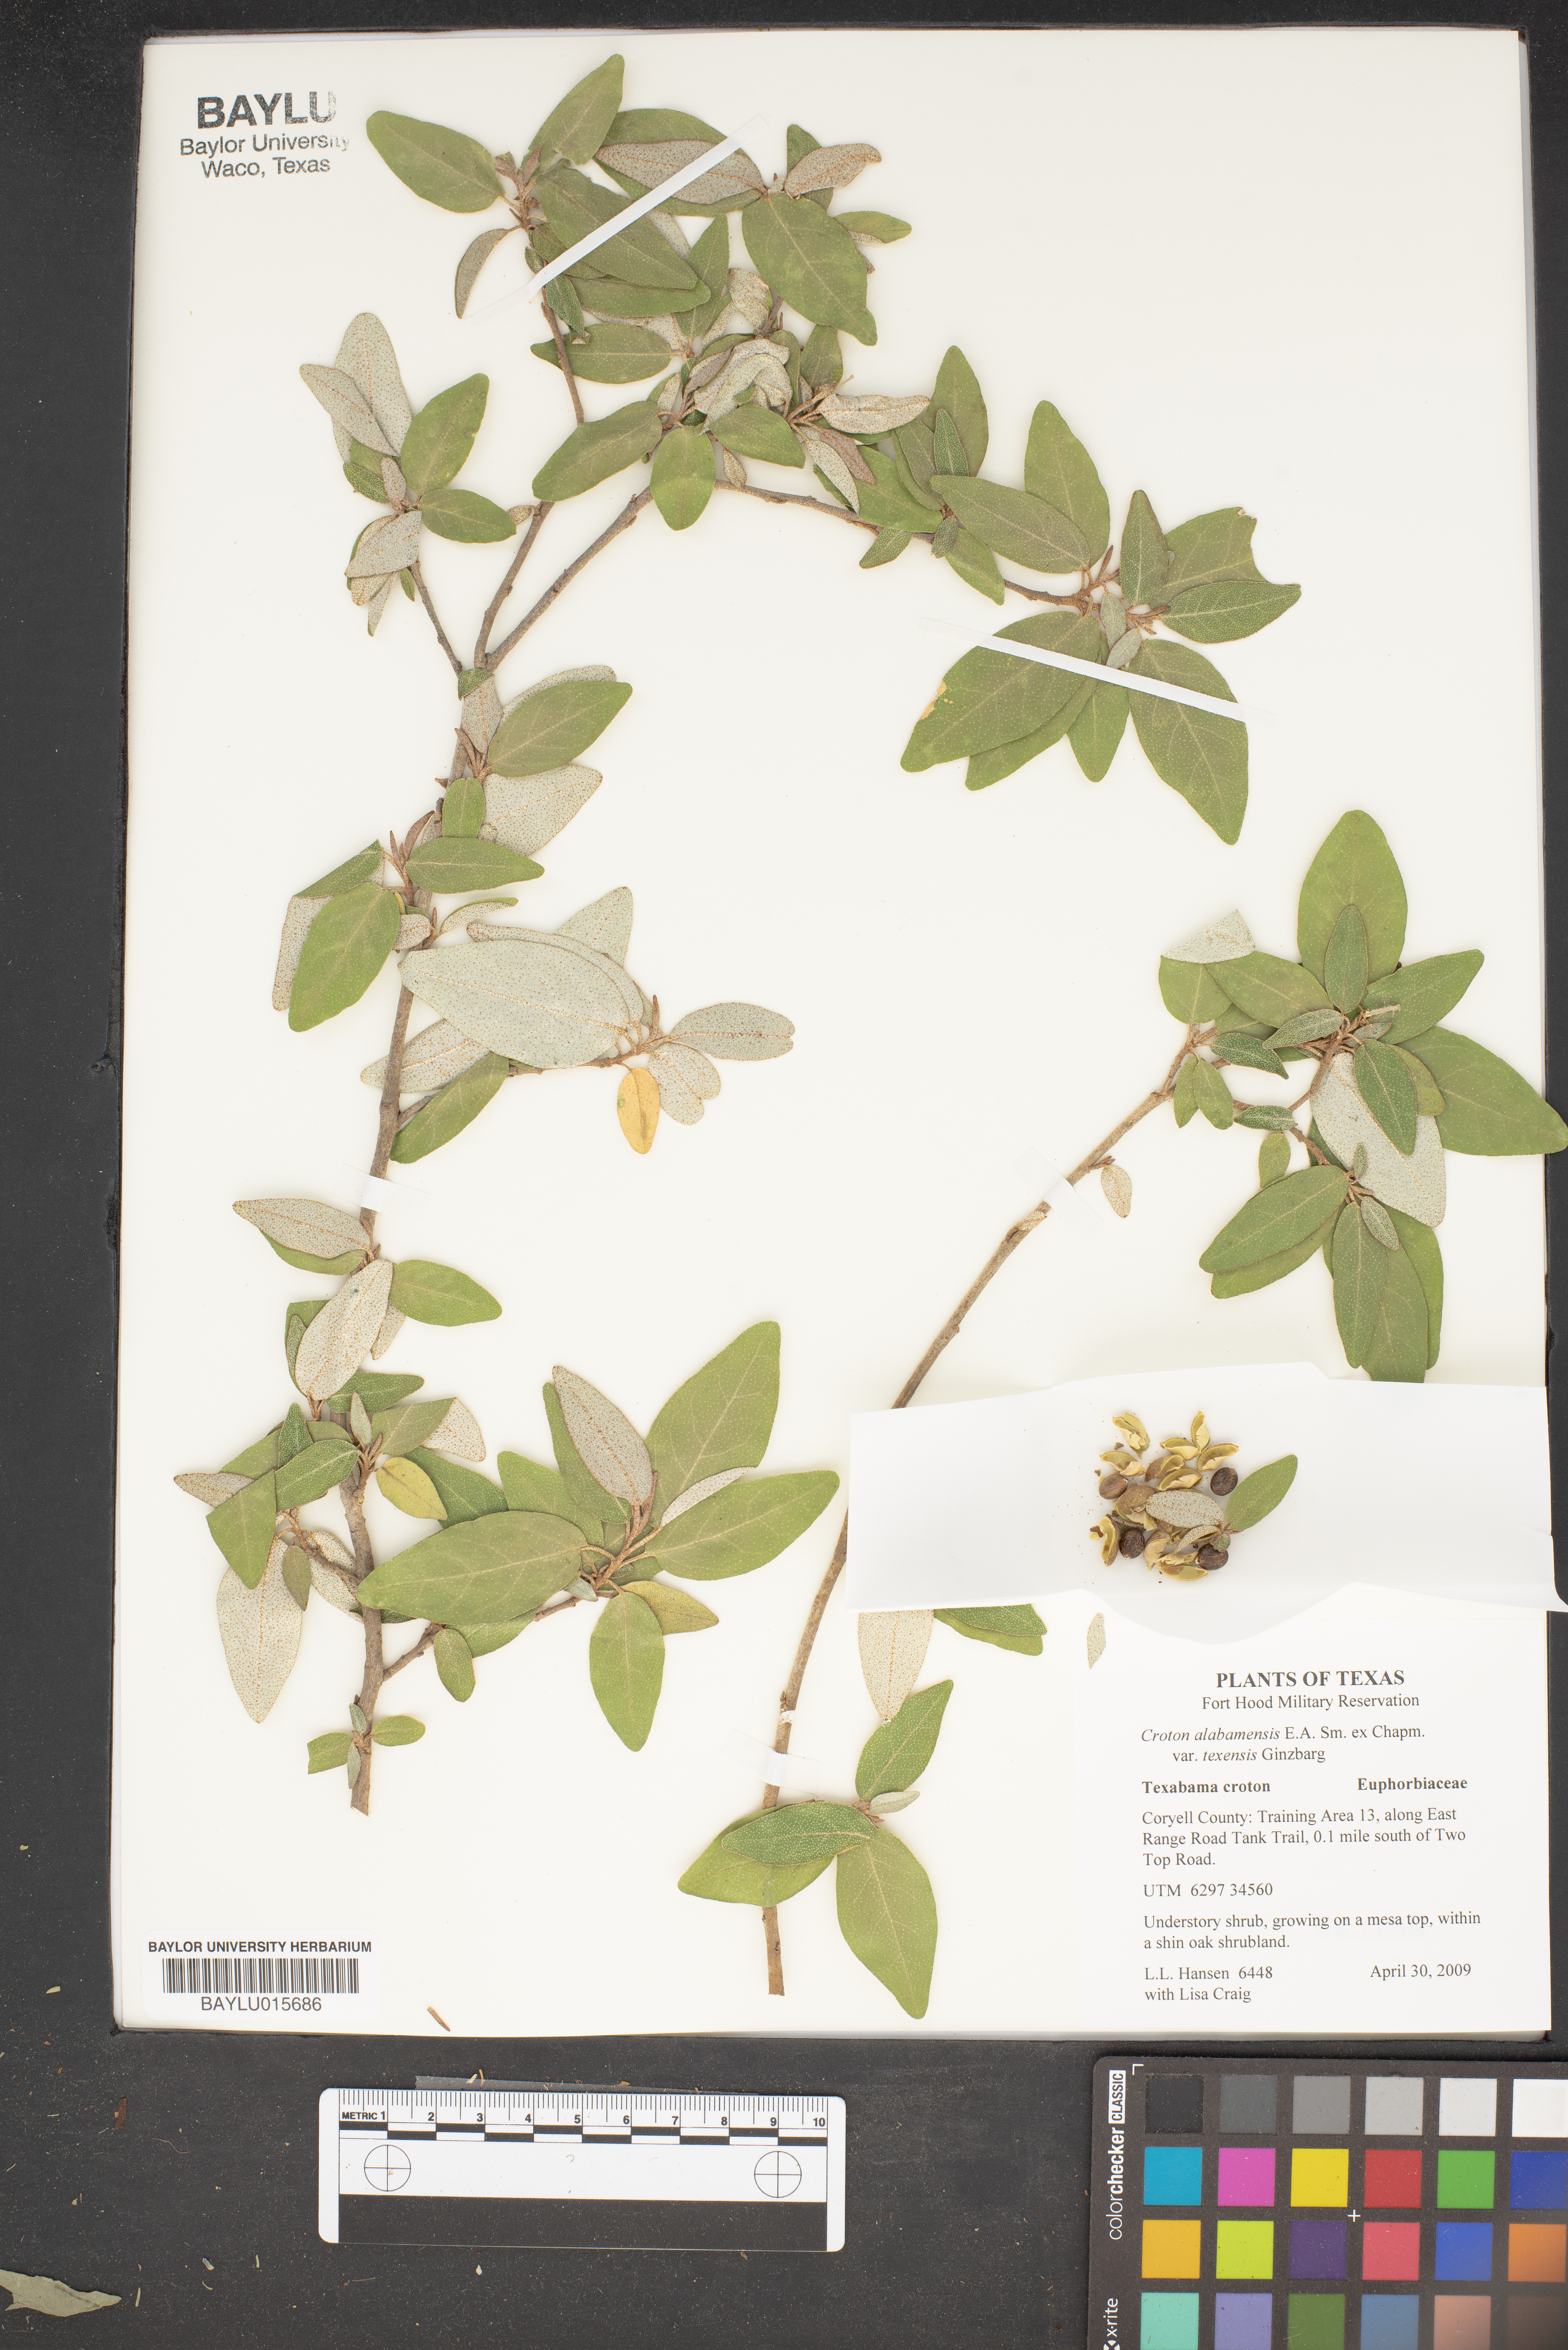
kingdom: Plantae
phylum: Tracheophyta
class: Magnoliopsida
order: Malpighiales
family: Euphorbiaceae
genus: Croton
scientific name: Croton alabamensis
